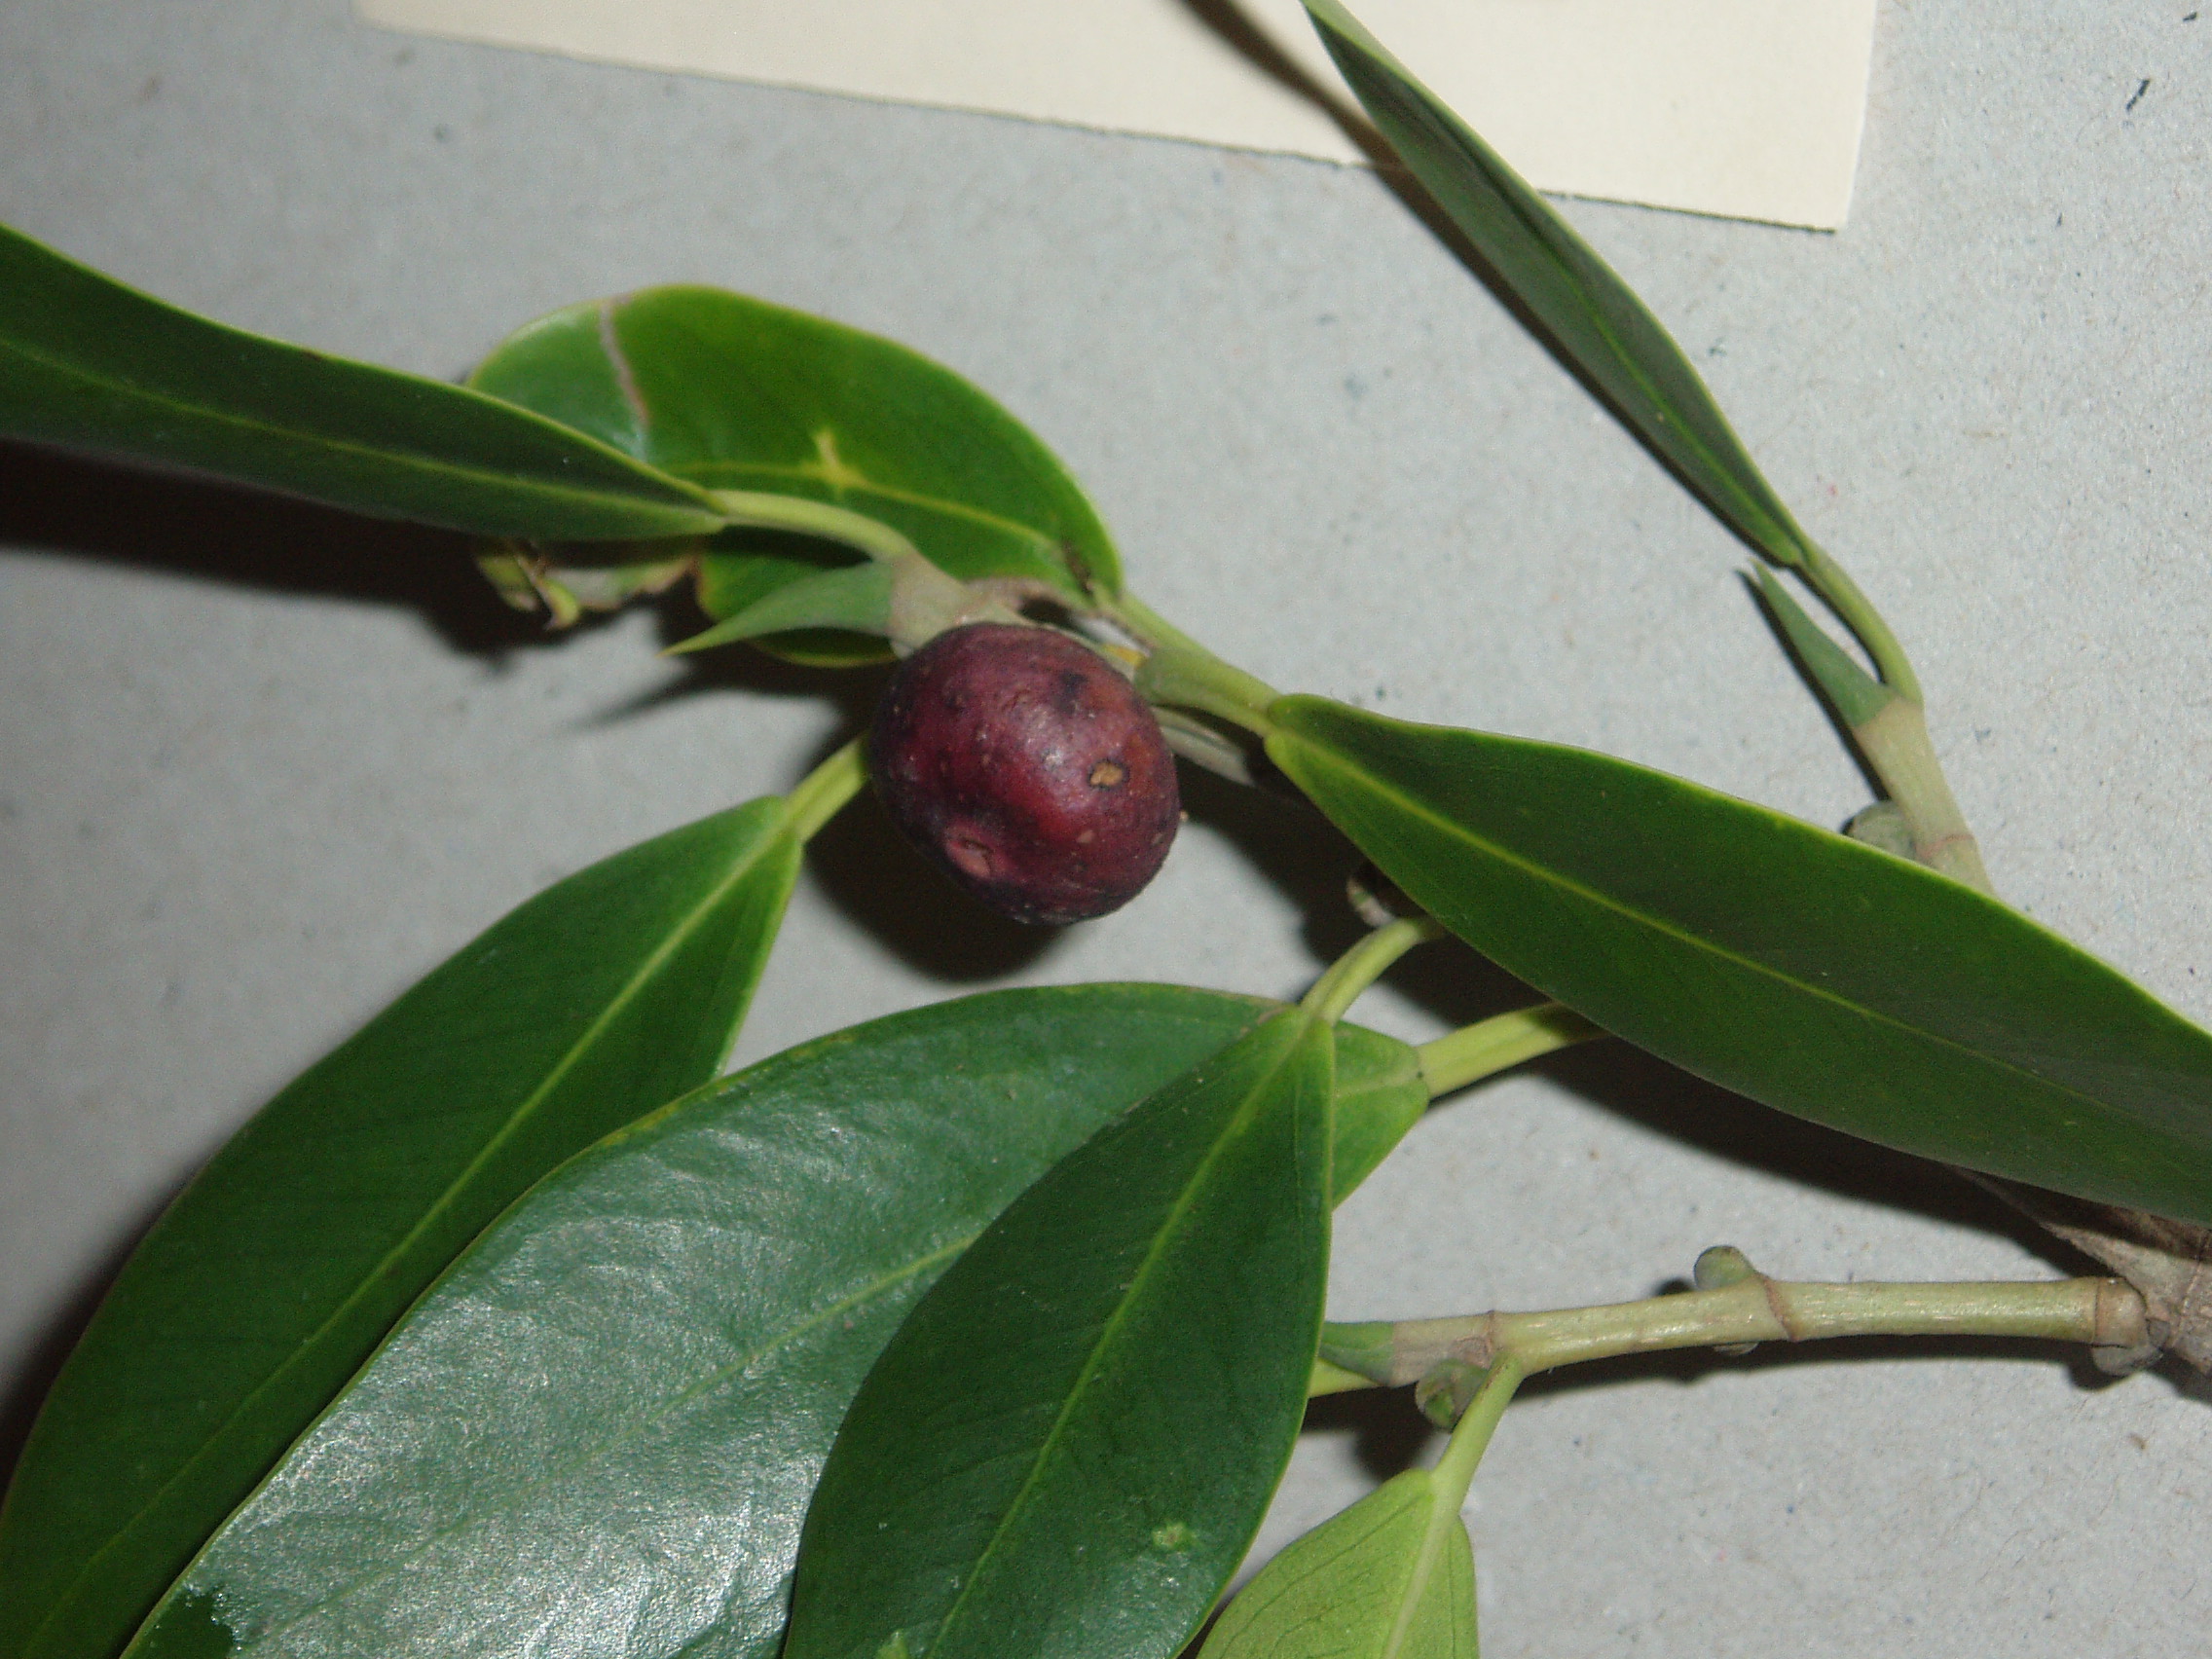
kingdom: Plantae
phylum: Tracheophyta
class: Magnoliopsida
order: Rosales
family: Moraceae
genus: Ficus
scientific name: Ficus microcarpa
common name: Chinese banyan
